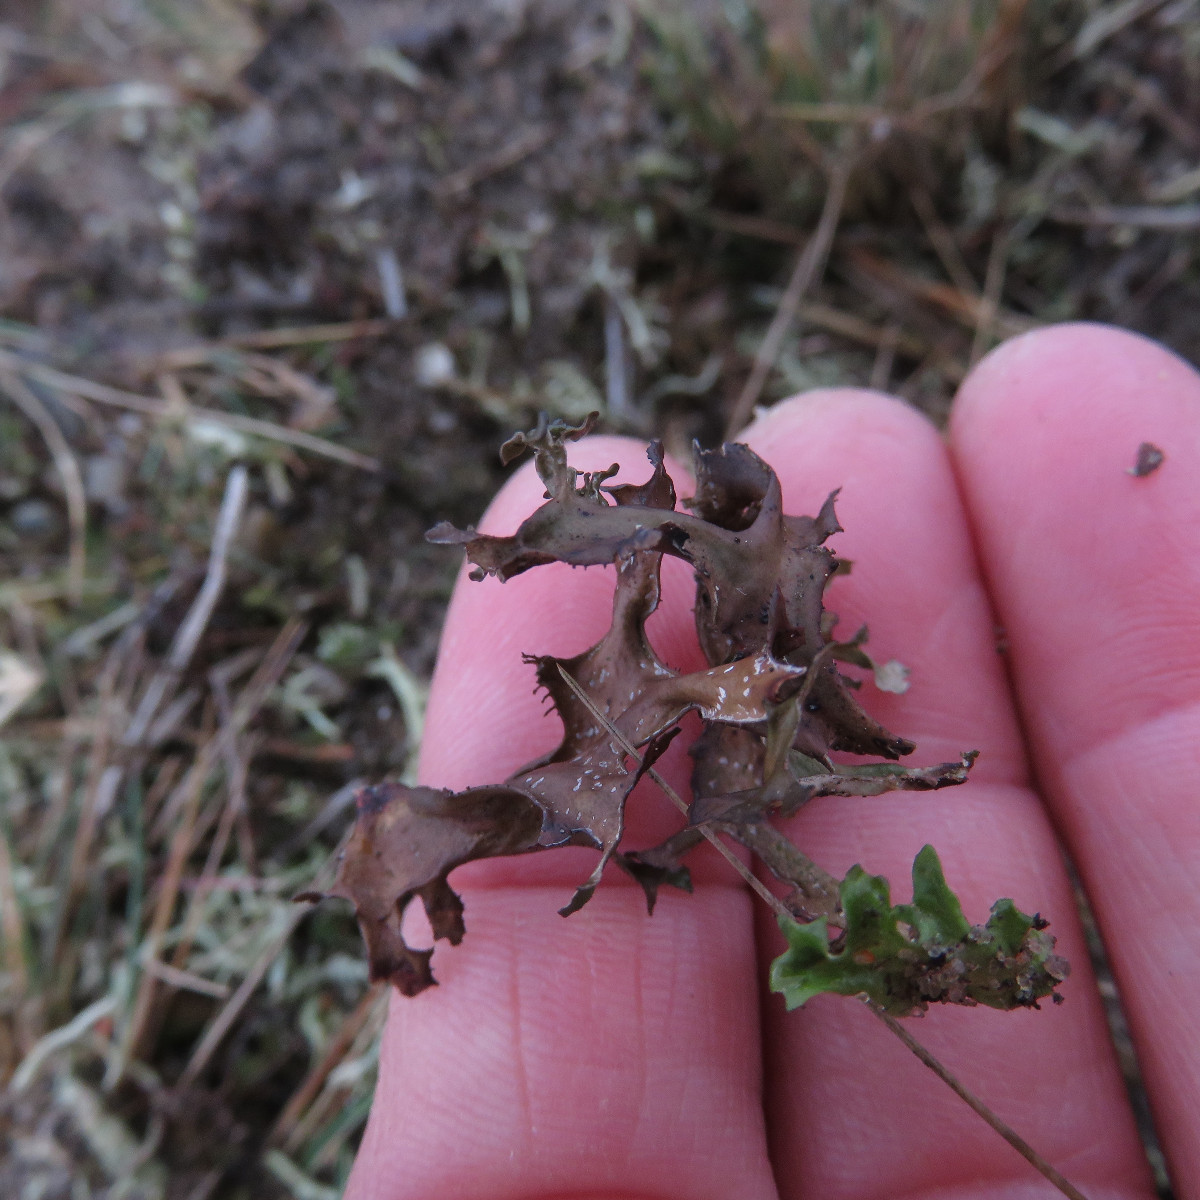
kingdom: Fungi
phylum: Ascomycota
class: Lecanoromycetes
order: Lecanorales
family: Parmeliaceae
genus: Cetraria
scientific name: Cetraria islandica
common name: islandsk kruslav
